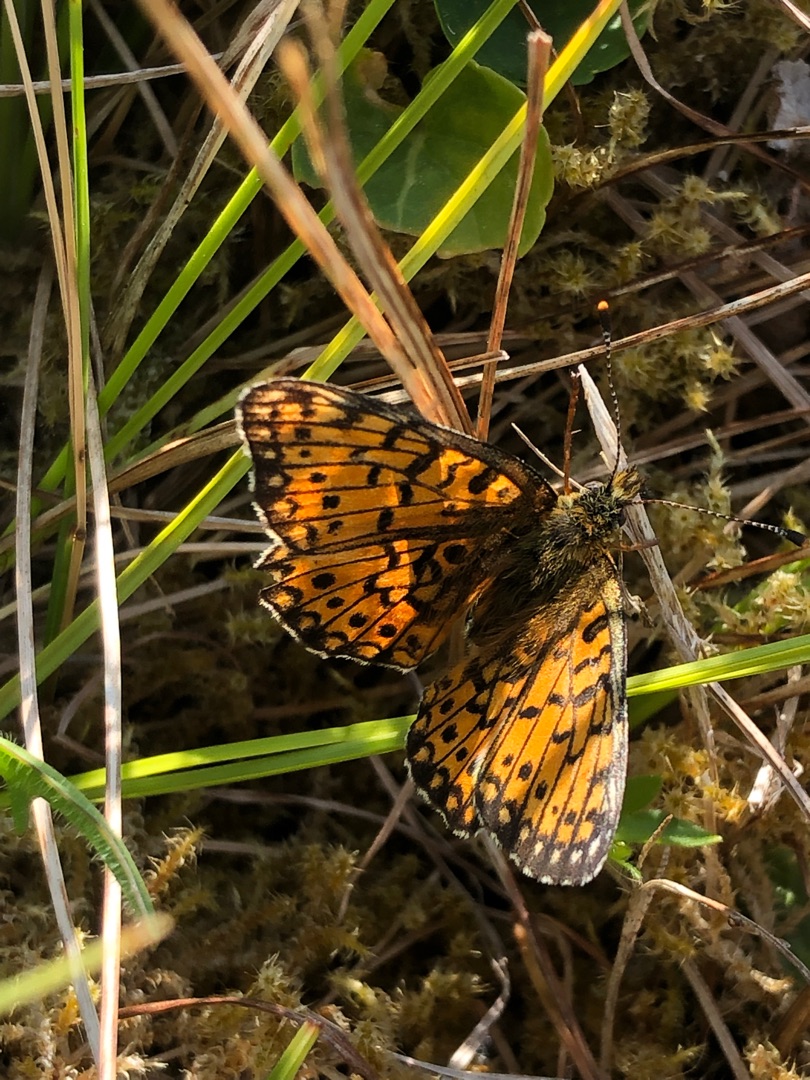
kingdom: Animalia
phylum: Arthropoda
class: Insecta
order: Lepidoptera
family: Nymphalidae
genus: Boloria
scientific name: Boloria selene
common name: Brunlig perlemorsommerfugl
